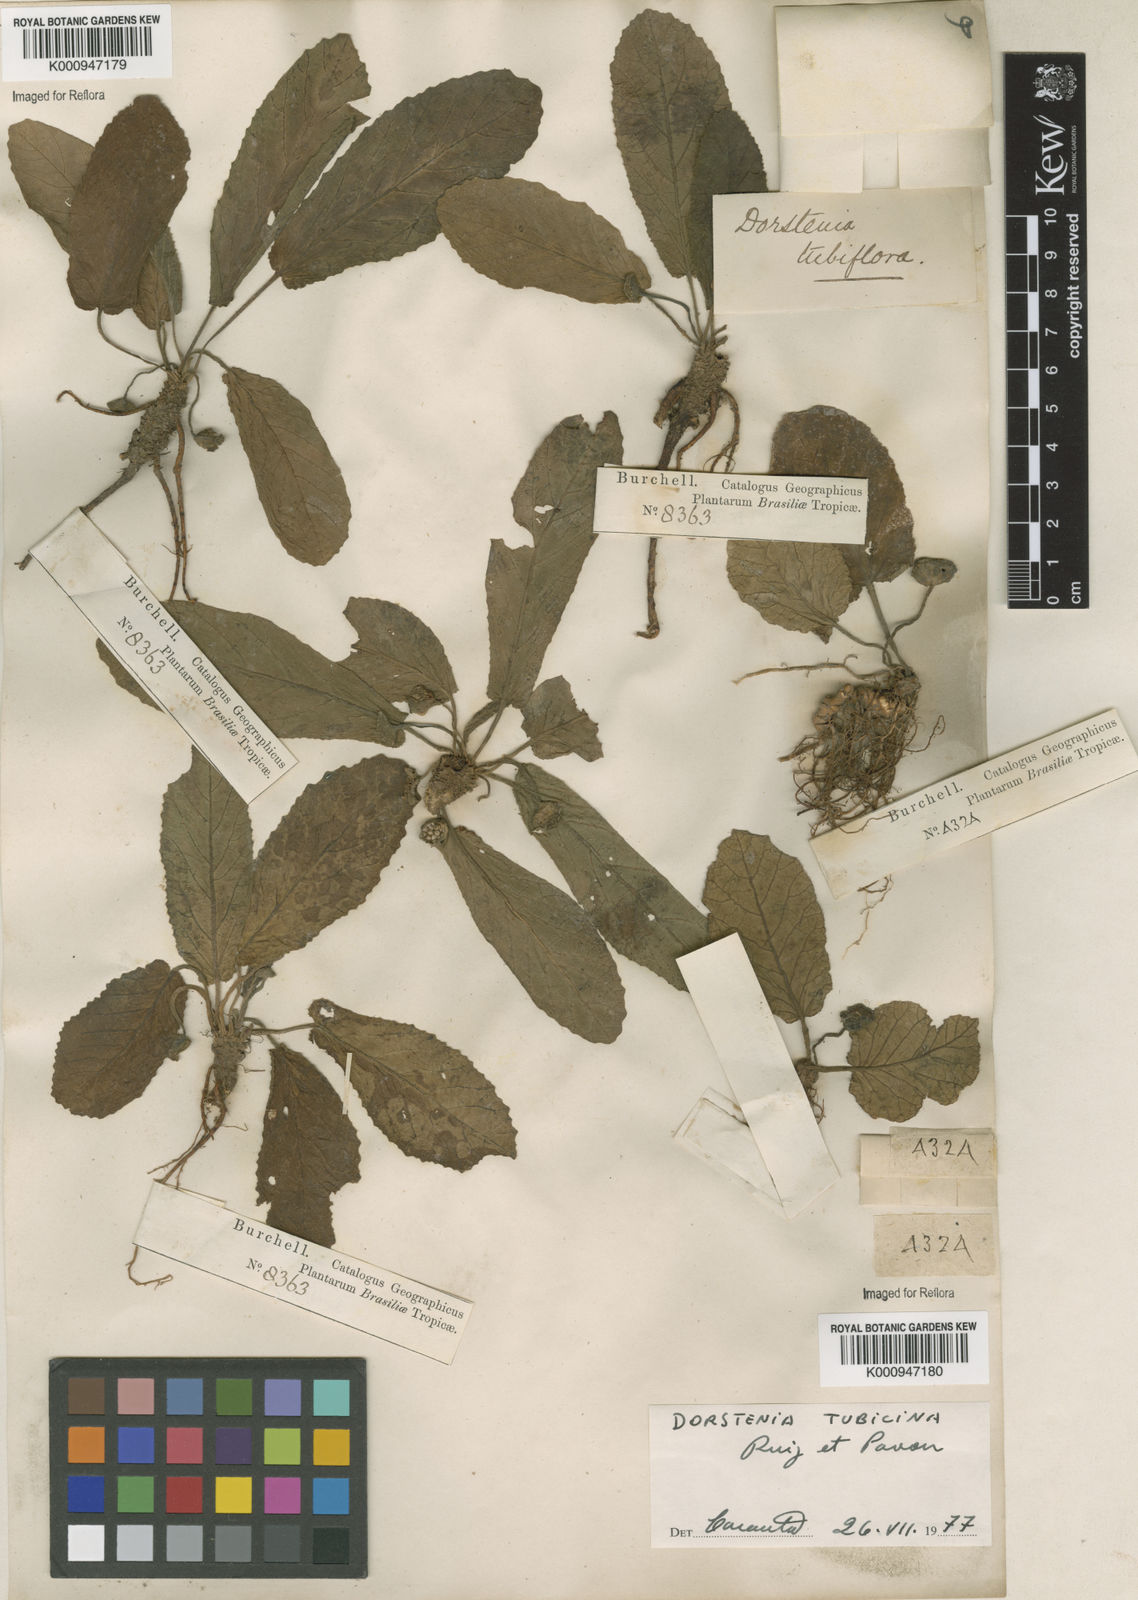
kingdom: Plantae
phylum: Tracheophyta
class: Magnoliopsida
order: Rosales
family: Moraceae
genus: Dorstenia
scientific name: Dorstenia brasiliensis
